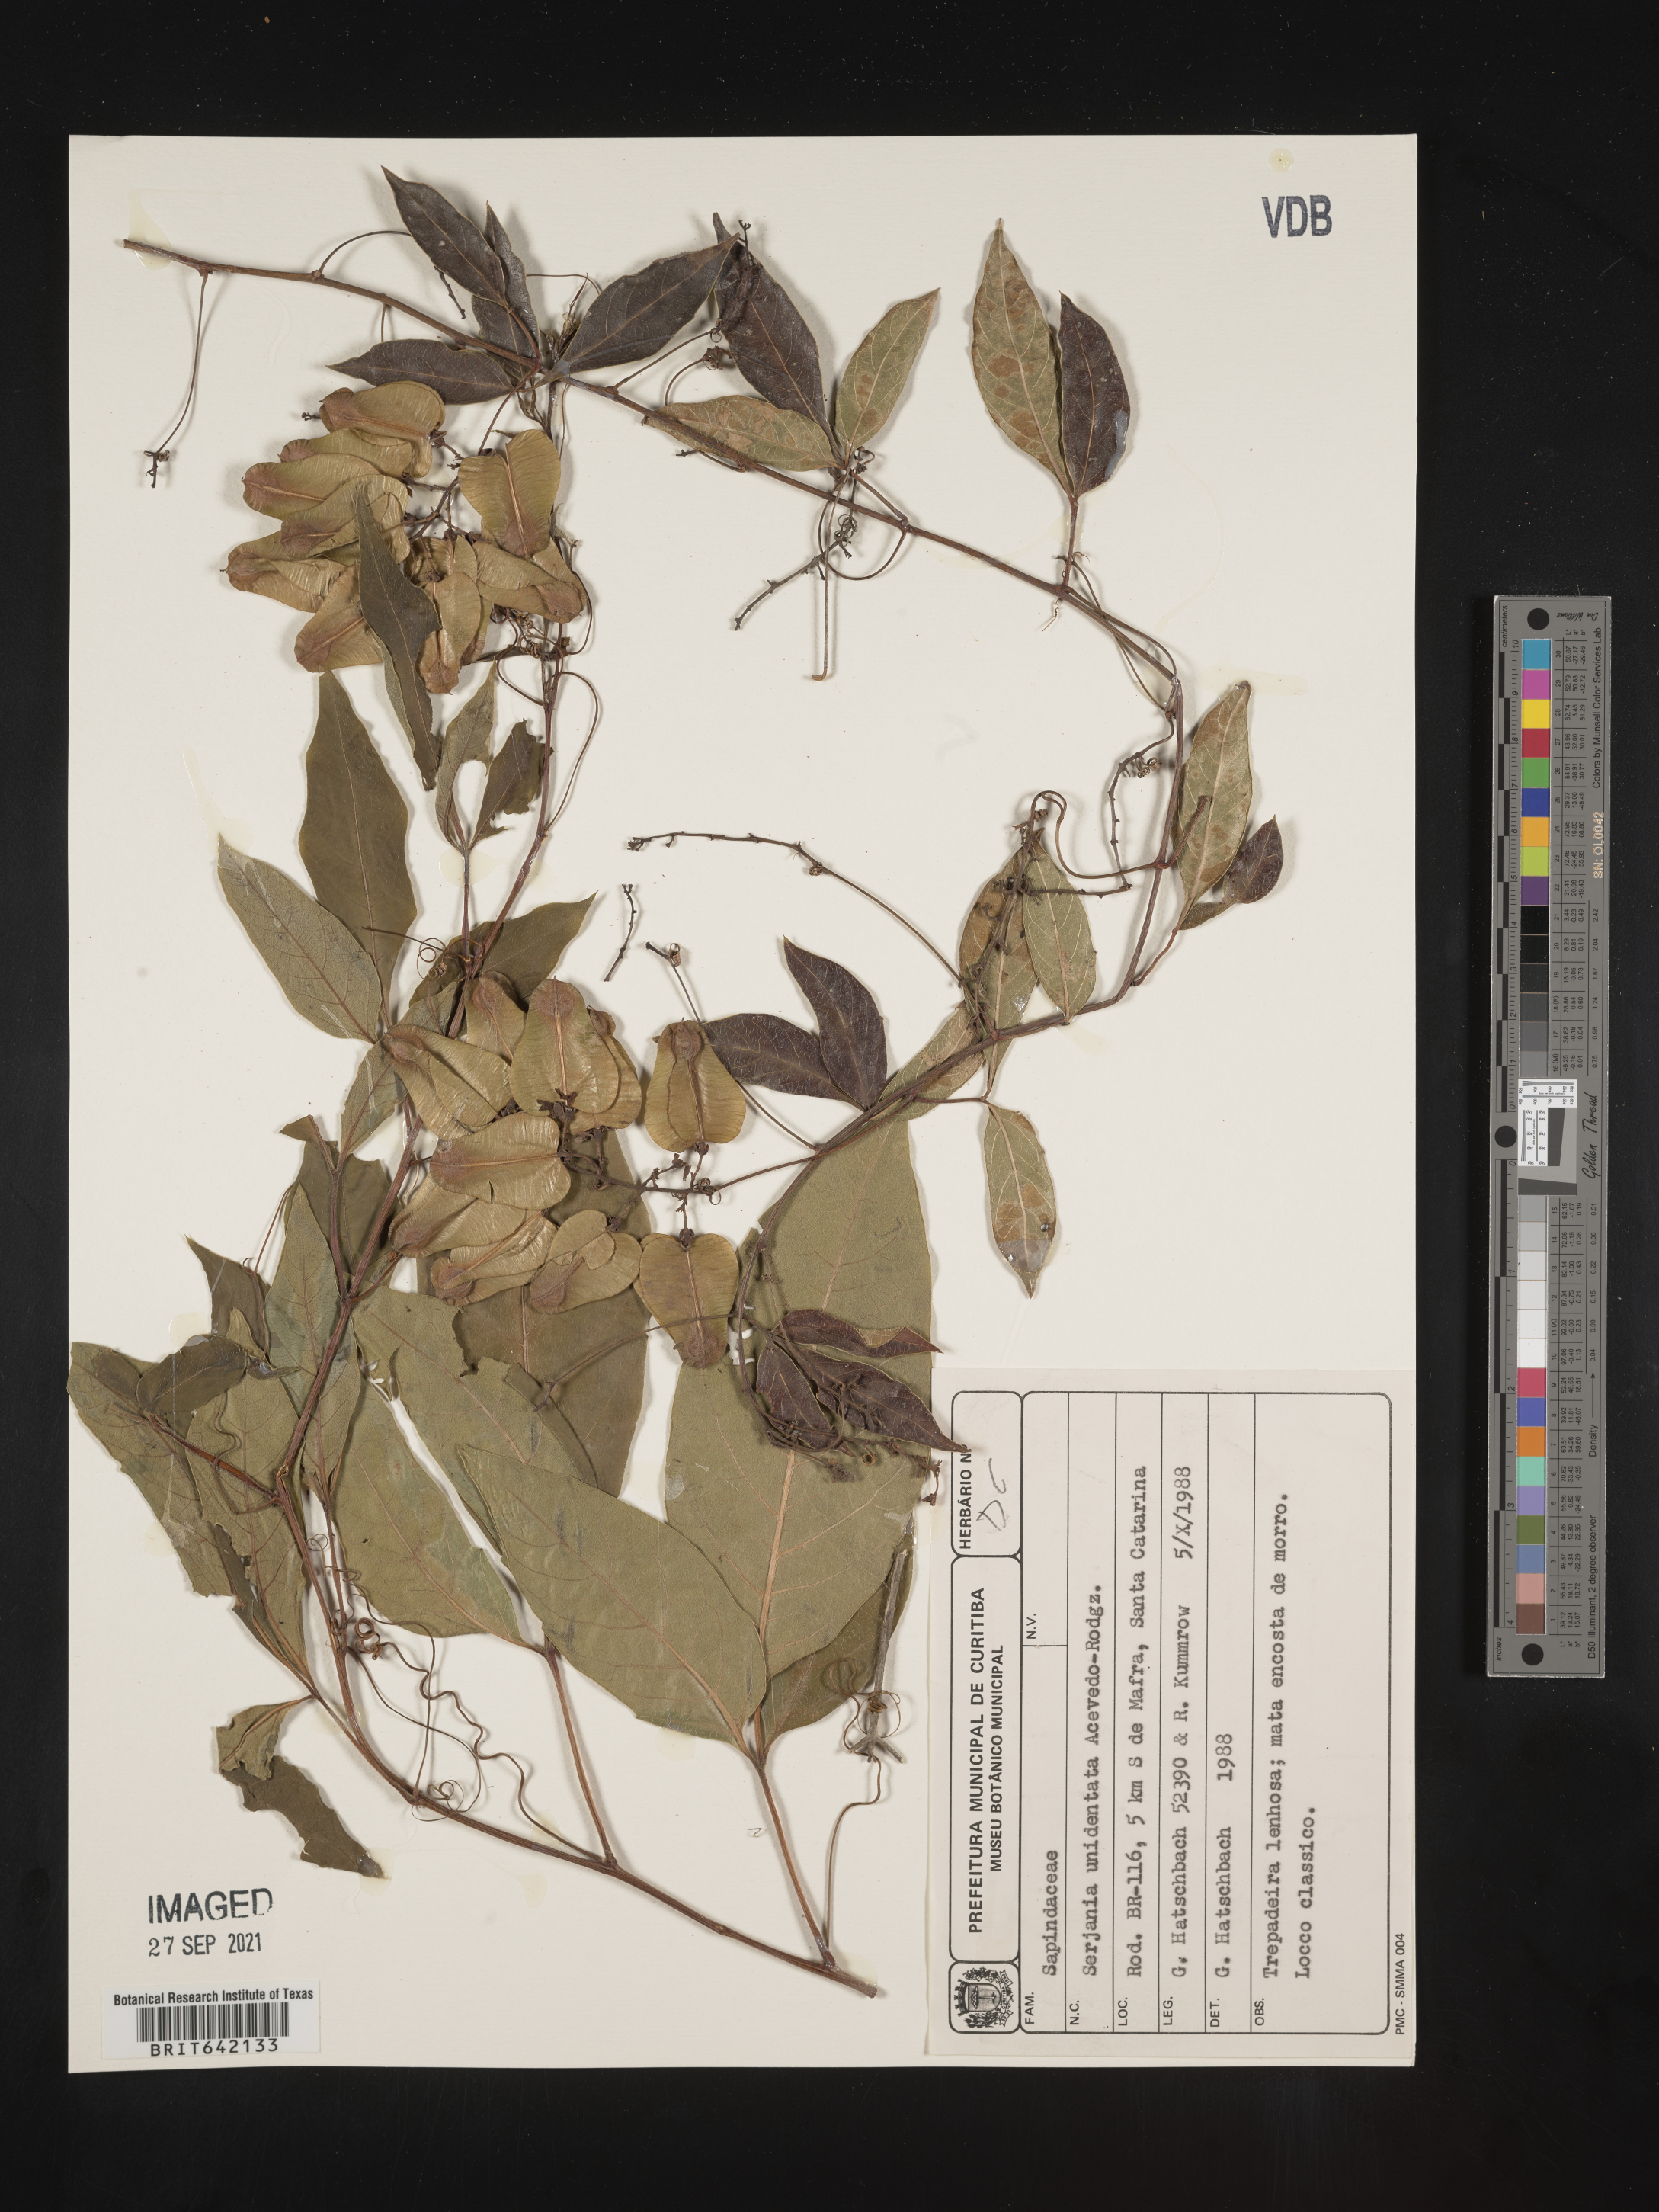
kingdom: Plantae
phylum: Tracheophyta
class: Magnoliopsida
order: Sapindales
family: Sapindaceae
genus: Serjania
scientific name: Serjania
